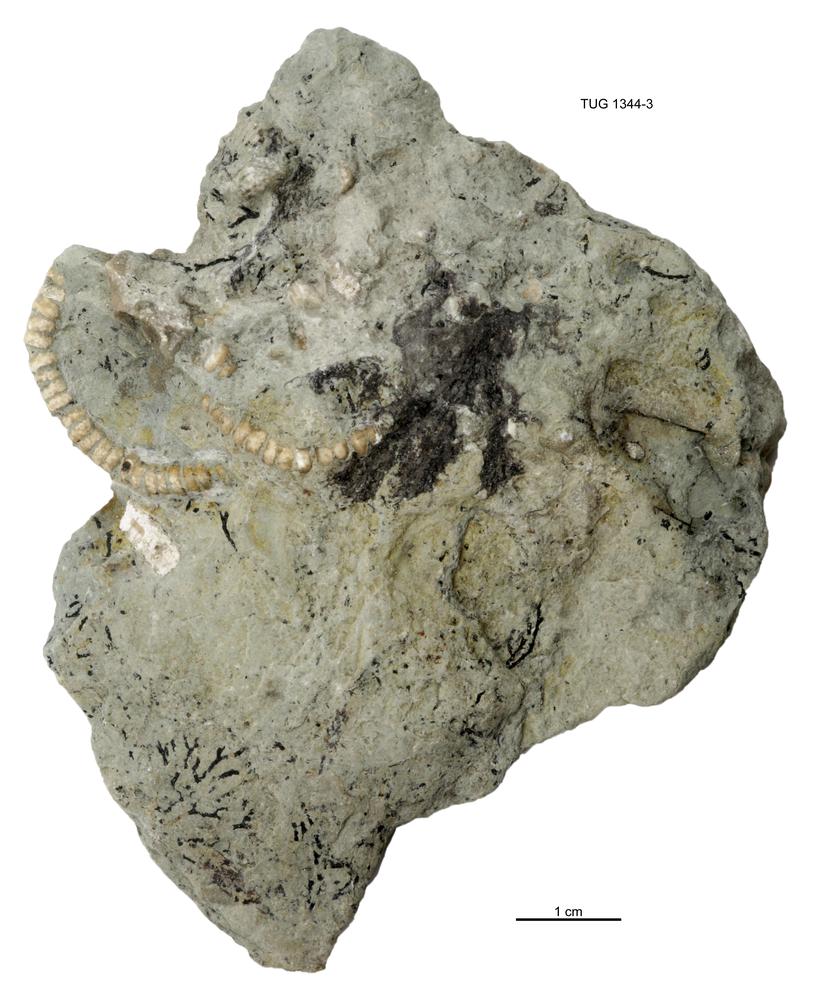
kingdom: Animalia
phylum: Echinodermata
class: Crinoidea
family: Iocrinidae
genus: Ristnacrinus
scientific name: Ristnacrinus marinus
